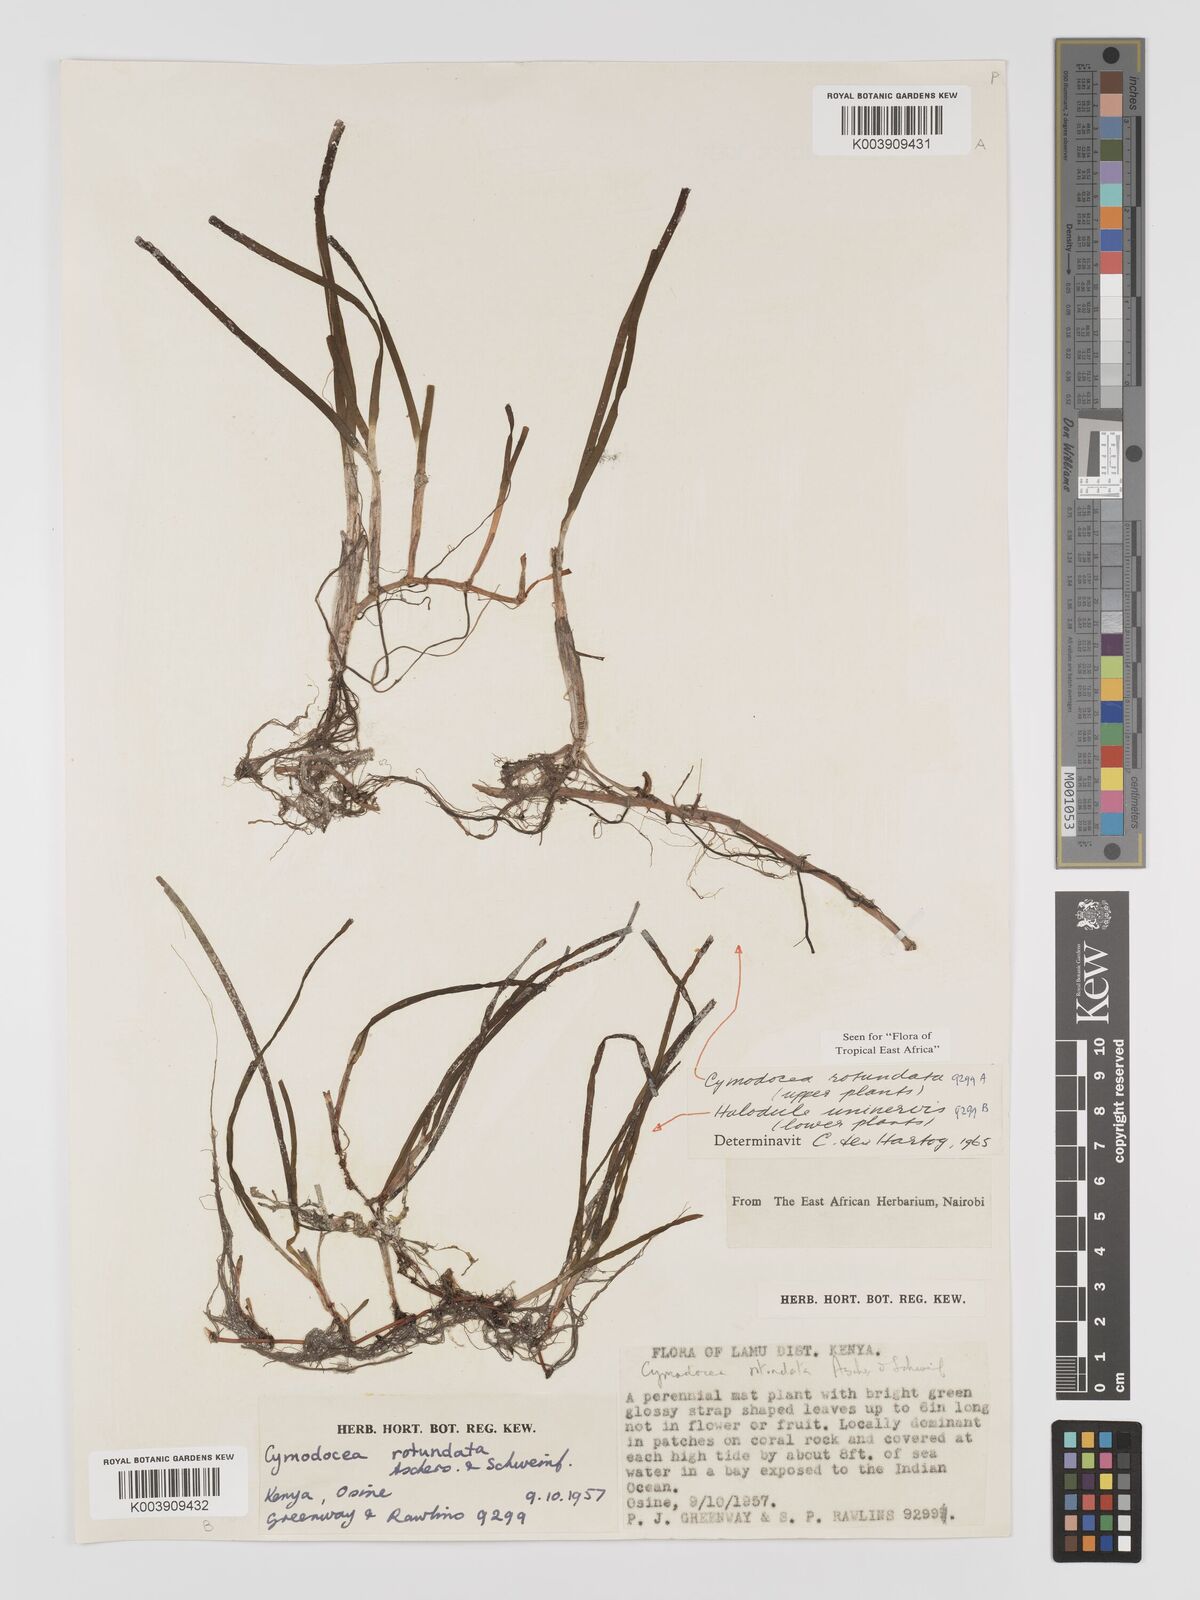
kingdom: Plantae
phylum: Tracheophyta
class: Liliopsida
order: Alismatales
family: Cymodoceaceae
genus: Cymodocea
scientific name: Cymodocea rotundata
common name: Species code: cr
